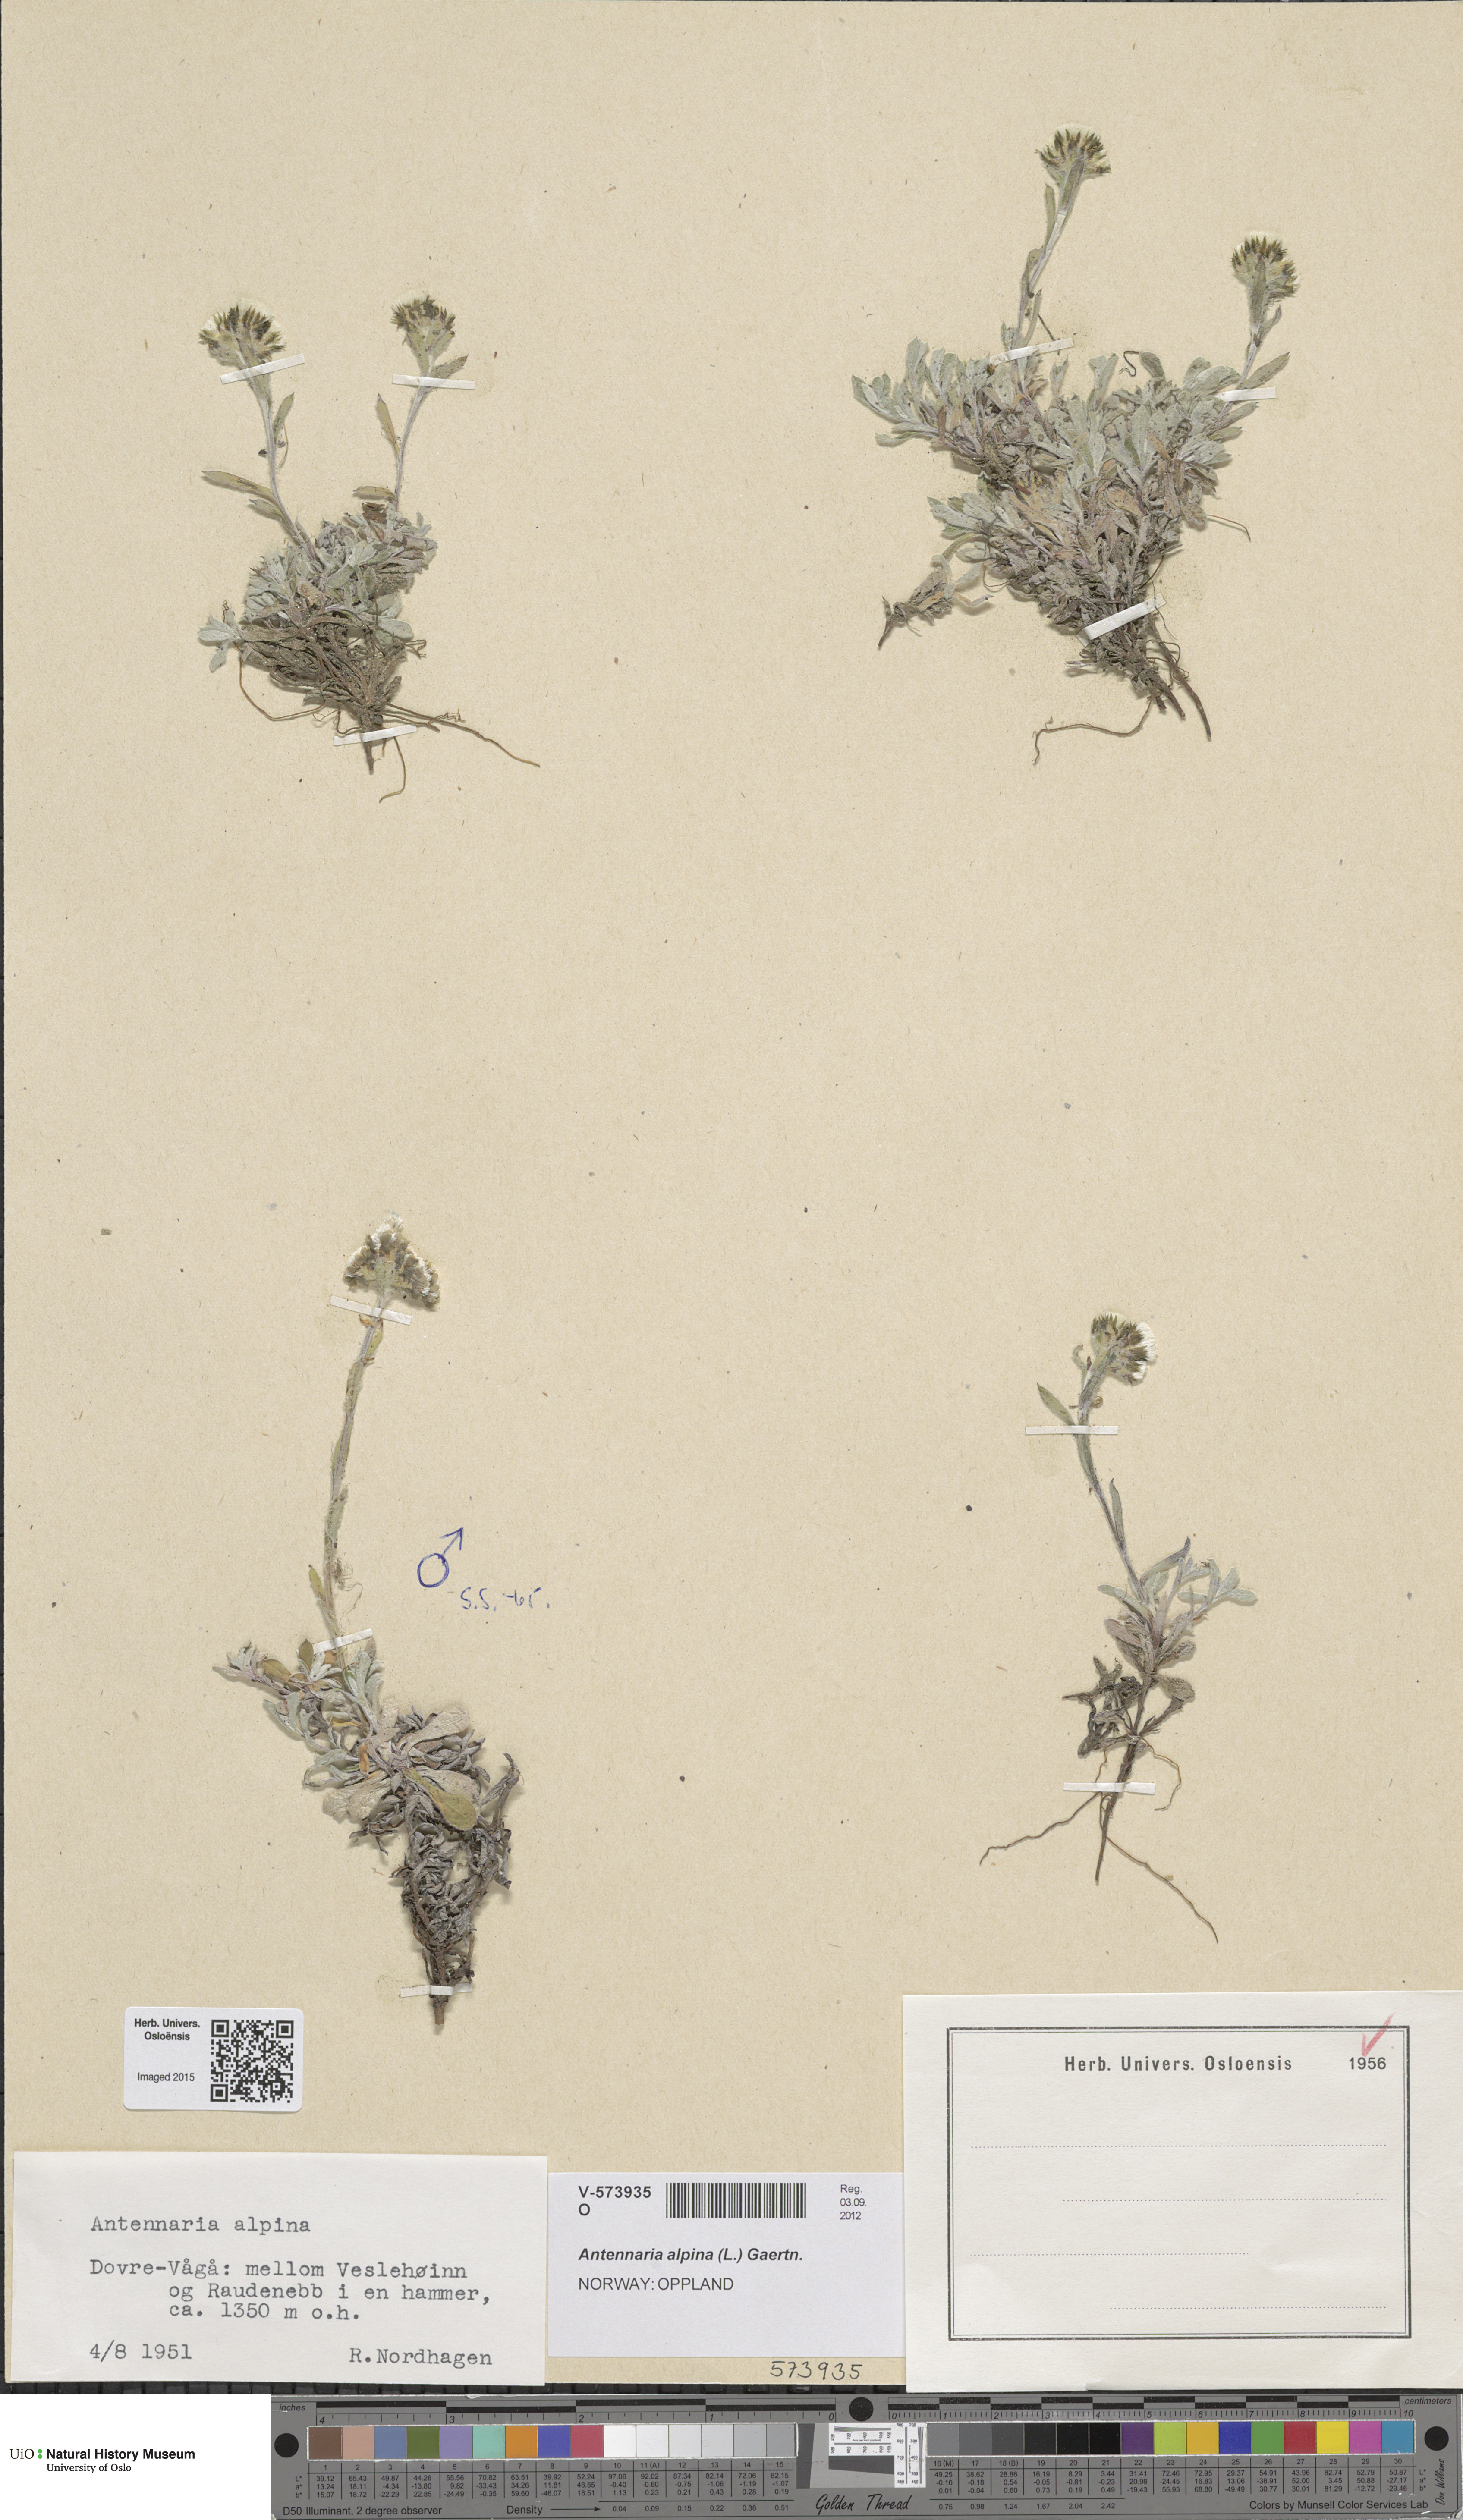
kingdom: Plantae
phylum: Tracheophyta
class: Magnoliopsida
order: Asterales
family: Asteraceae
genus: Antennaria
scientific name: Antennaria alpina
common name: Alpine pussytoes
